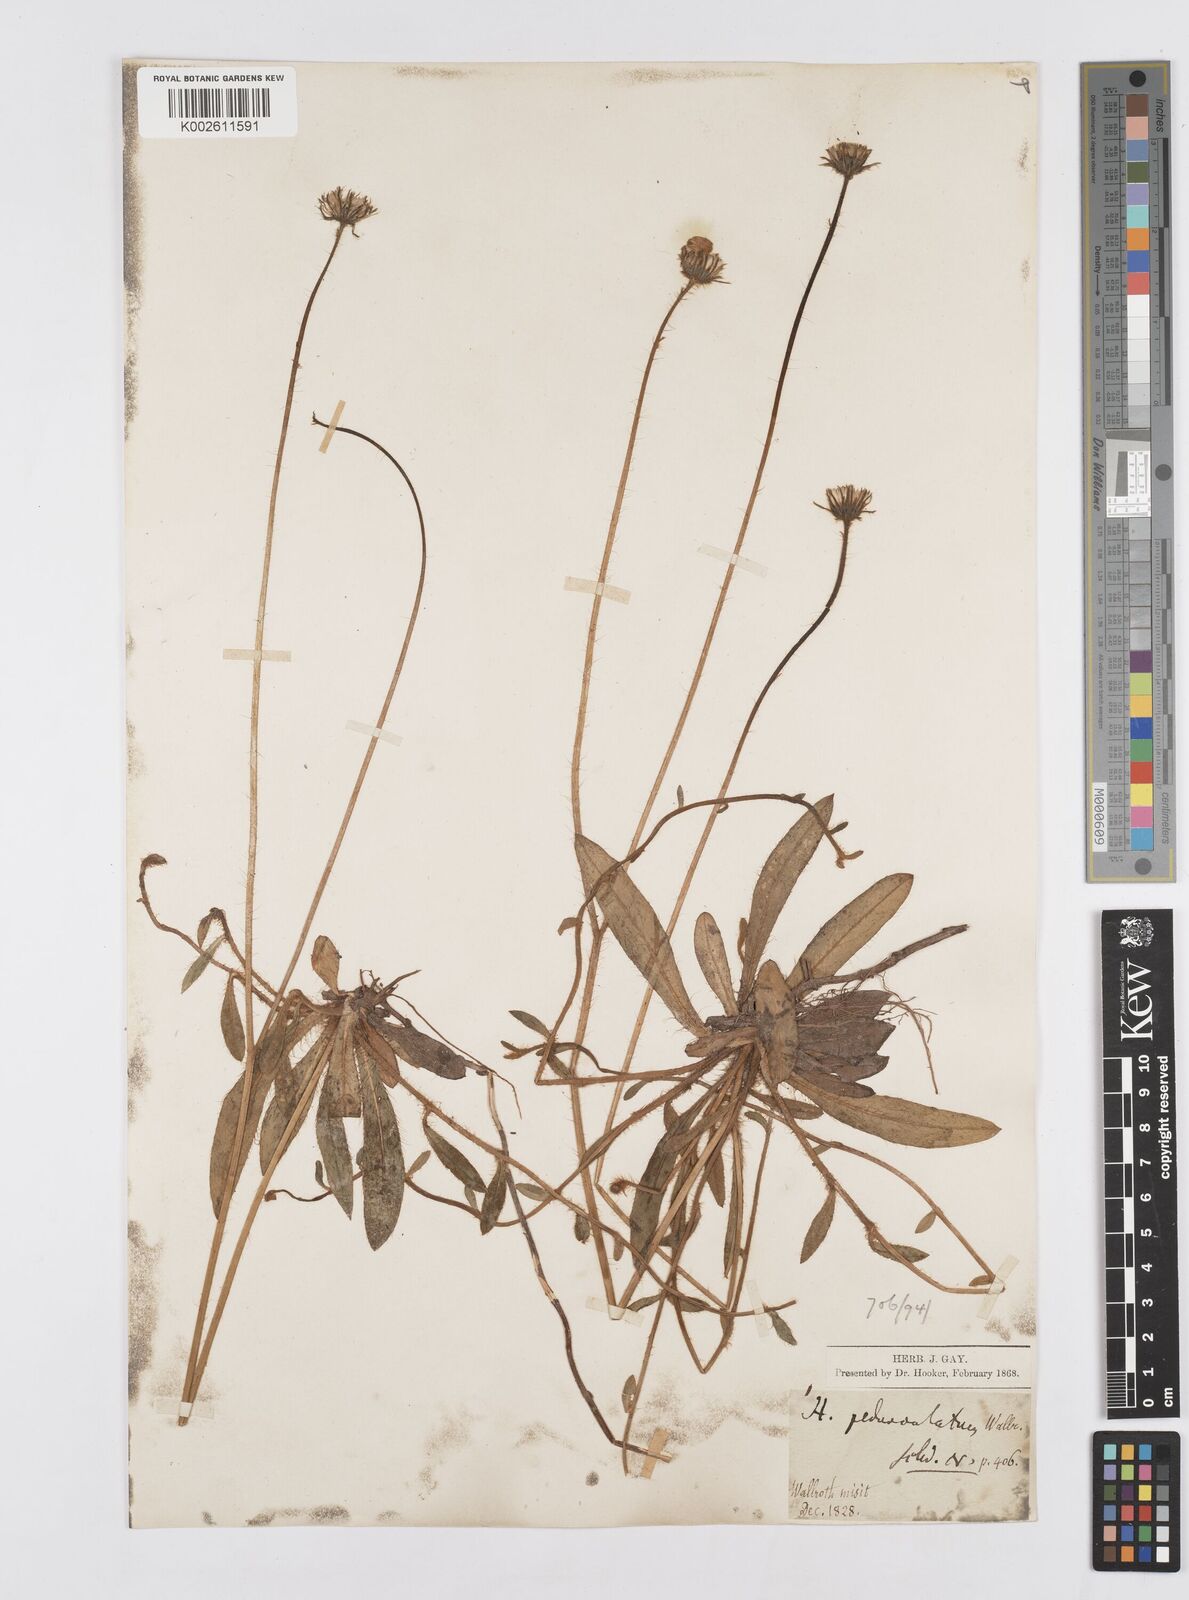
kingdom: Plantae
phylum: Tracheophyta
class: Magnoliopsida
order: Asterales
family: Asteraceae
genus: Pilosella
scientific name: Pilosella acutifolia
